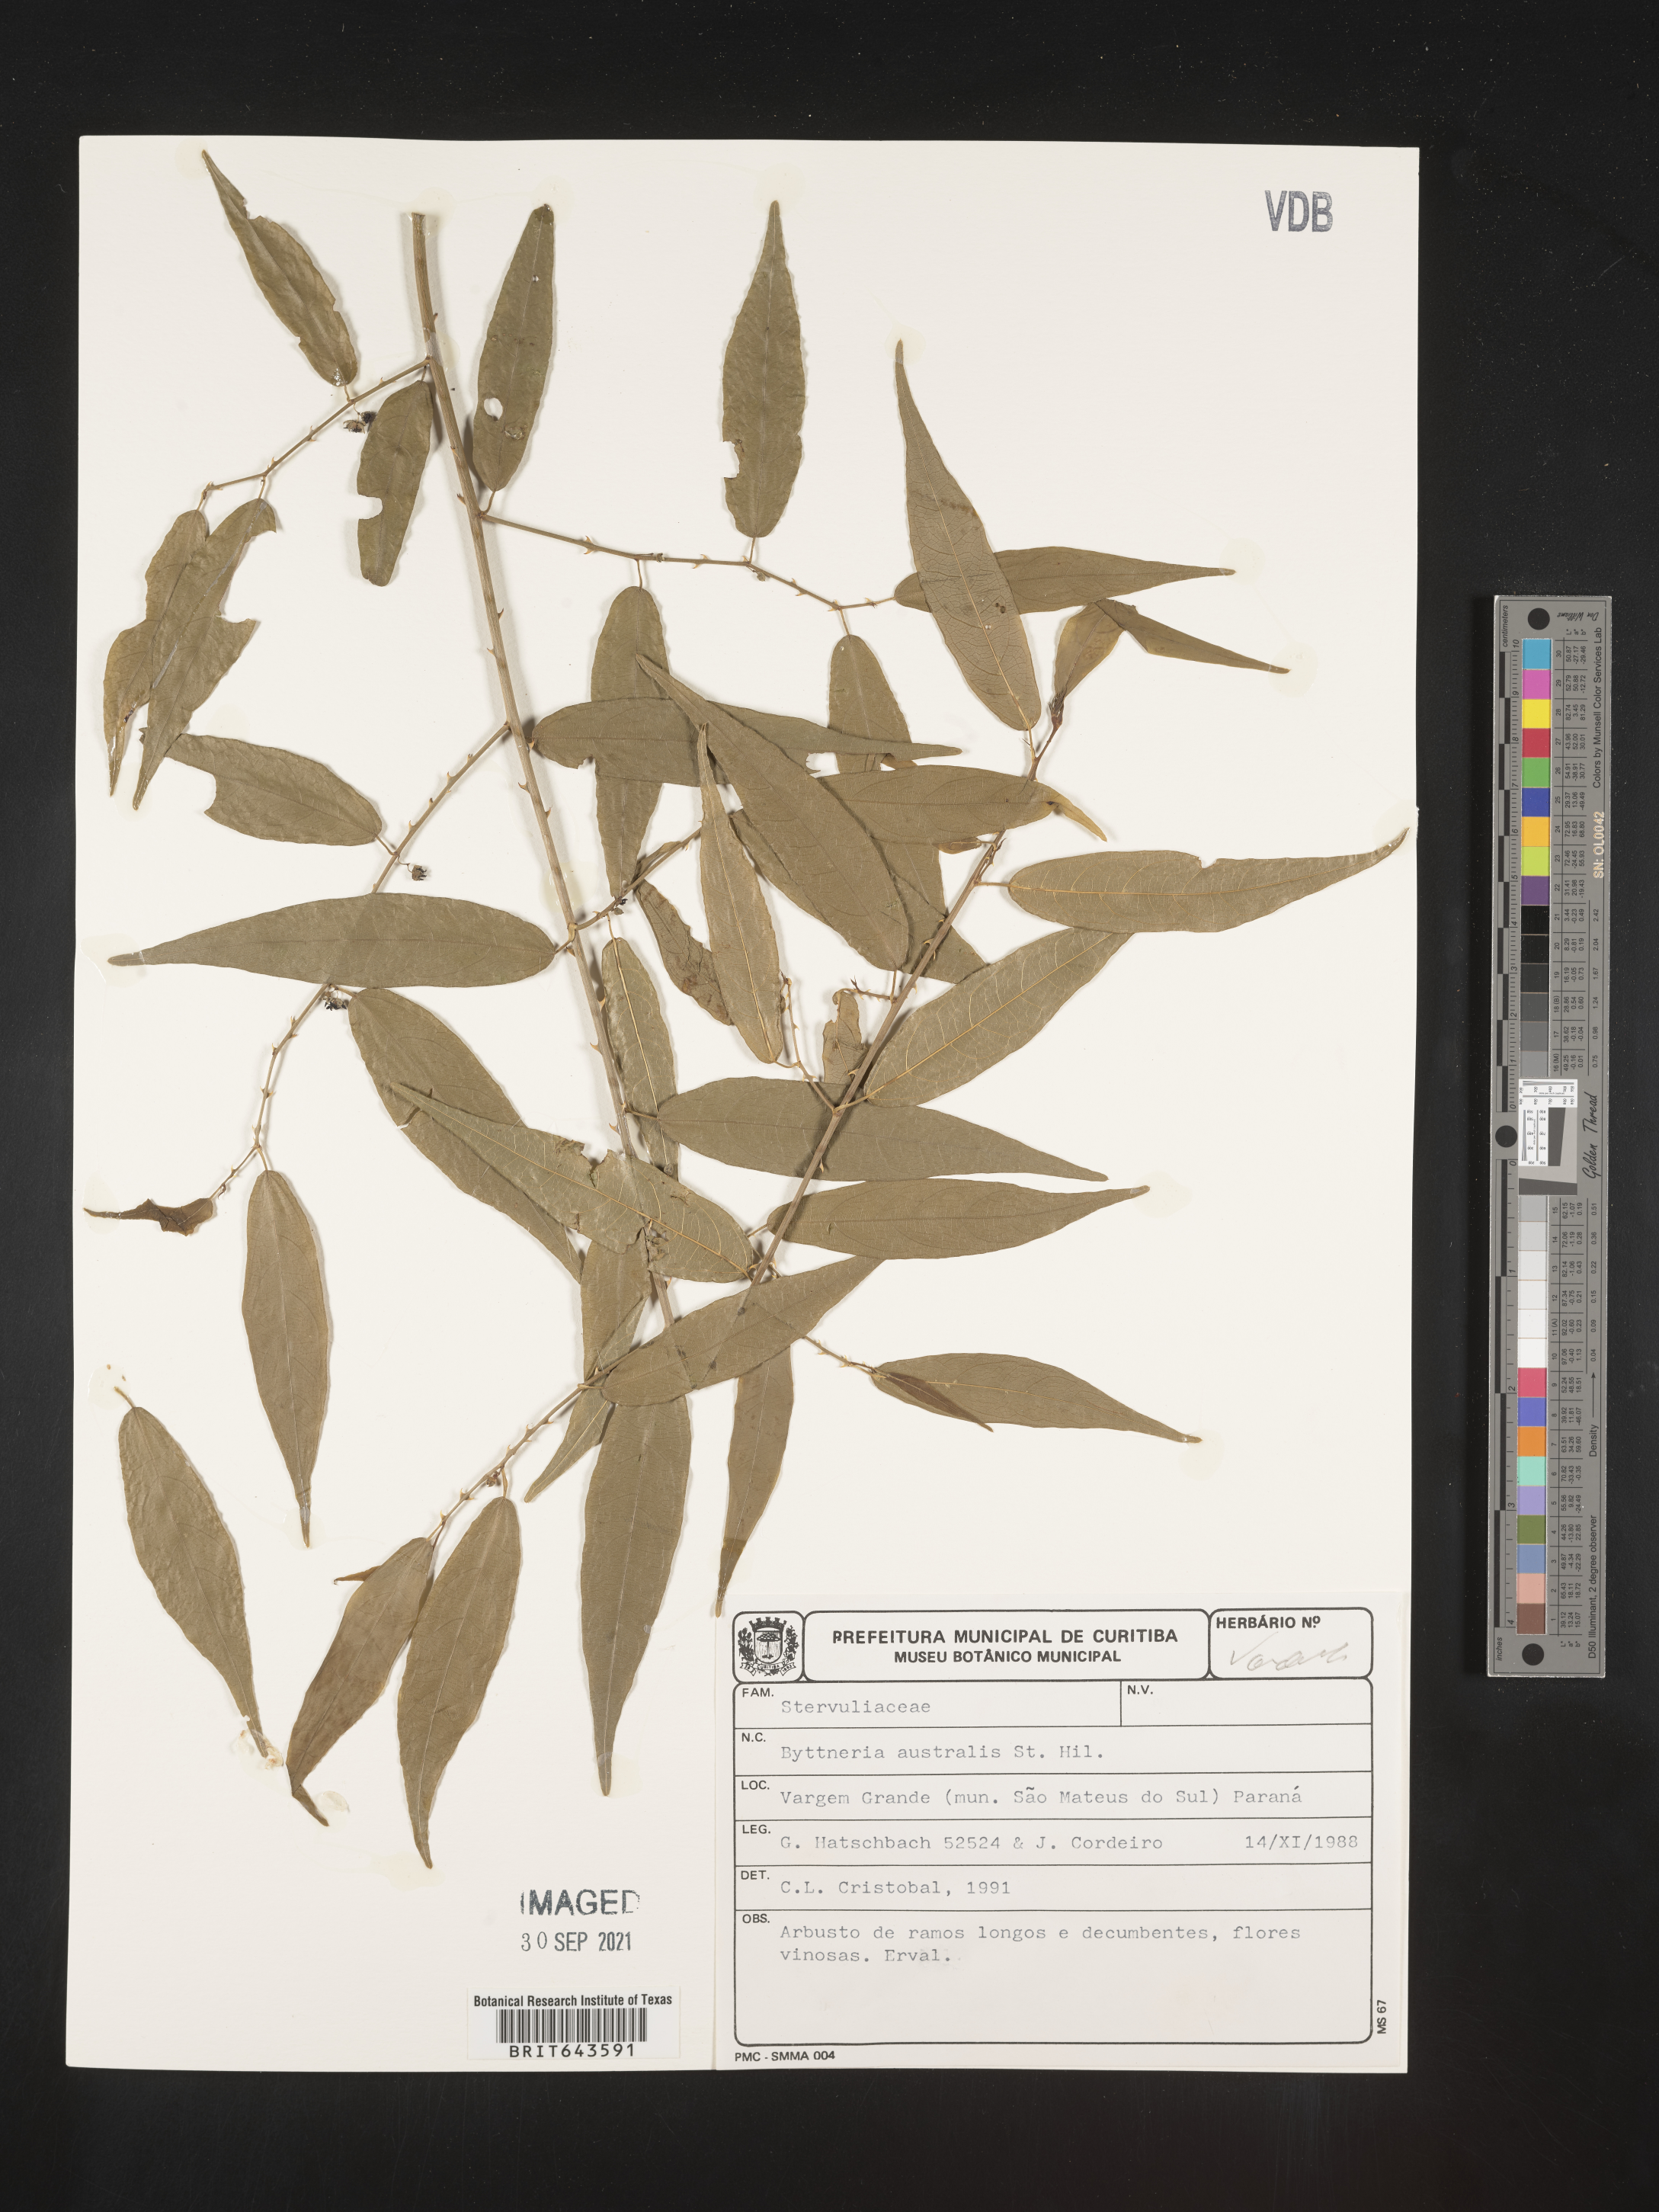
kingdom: Plantae
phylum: Tracheophyta
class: Magnoliopsida
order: Malvales
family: Malvaceae
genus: Byttneria
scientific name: Byttneria
